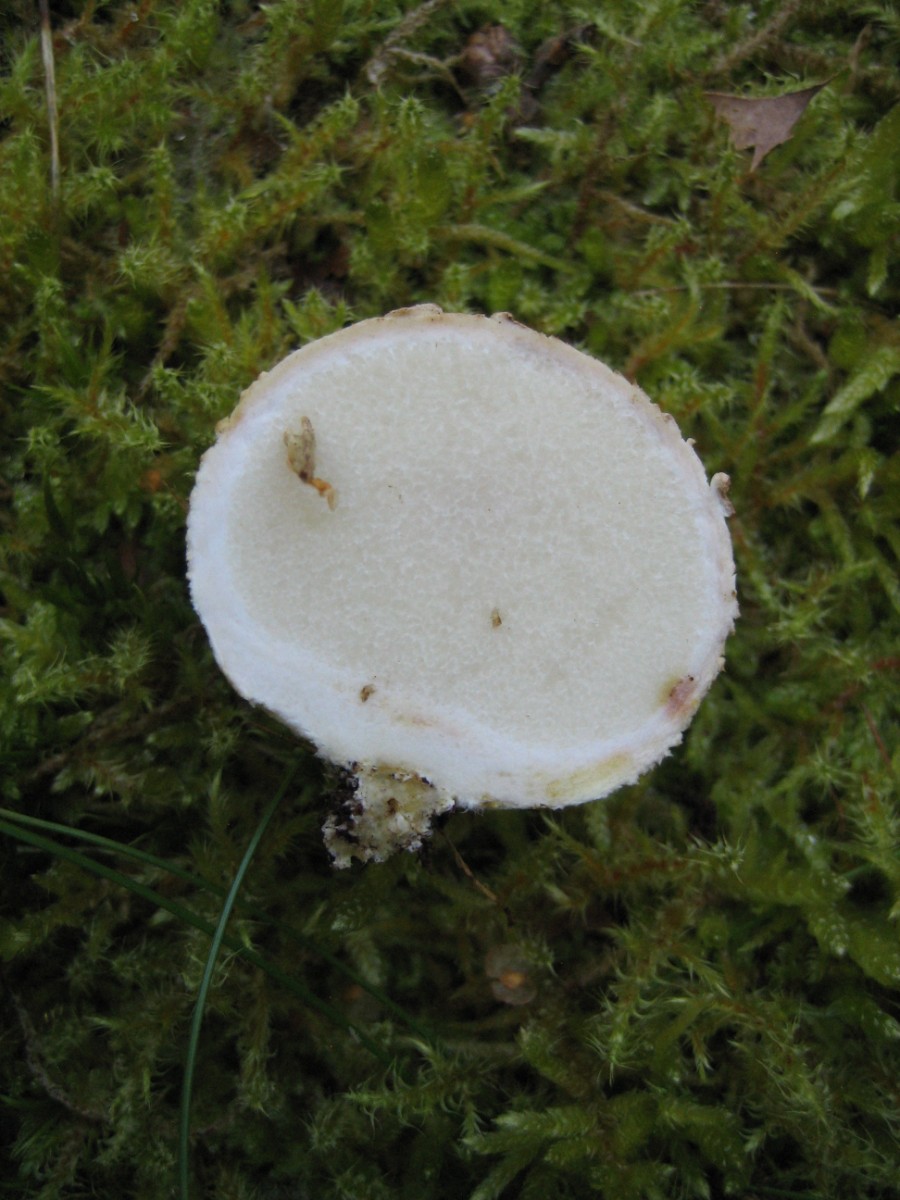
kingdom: Fungi
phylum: Basidiomycota
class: Agaricomycetes
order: Boletales
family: Sclerodermataceae
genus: Scleroderma
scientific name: Scleroderma citrinum
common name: almindelig bruskbold
